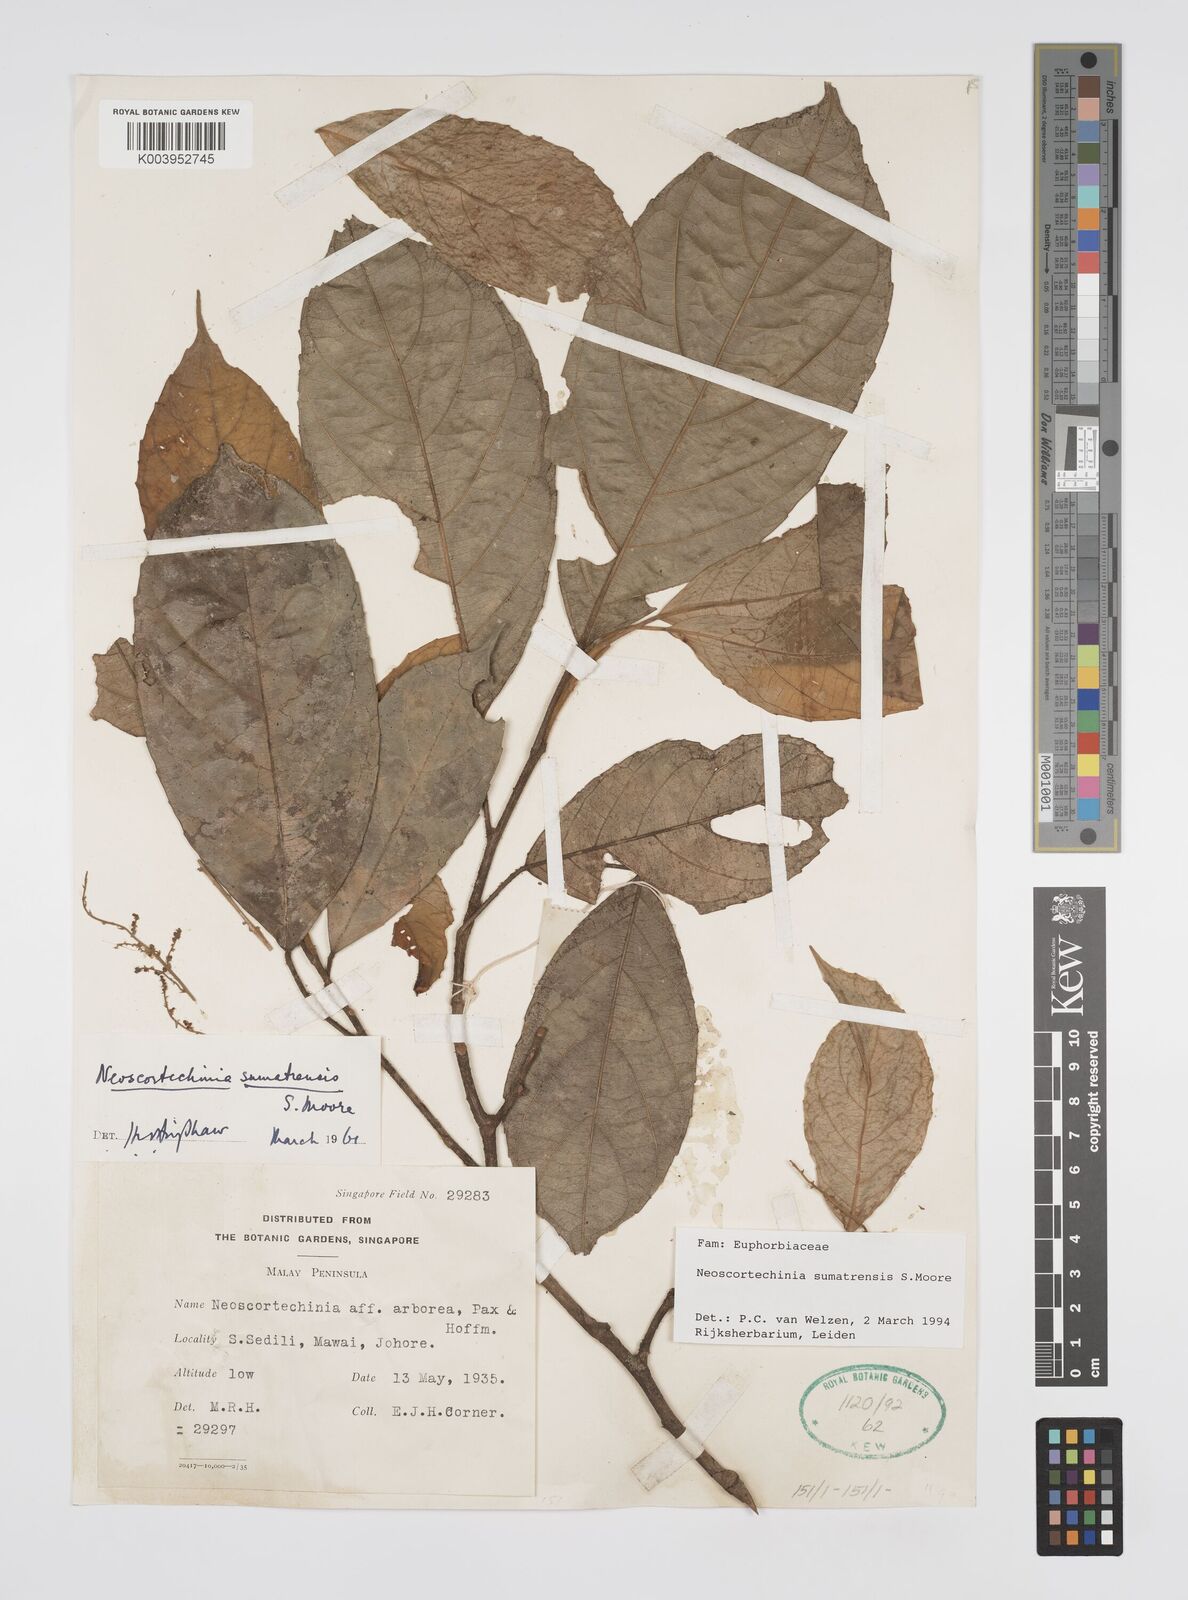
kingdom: Plantae
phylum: Tracheophyta
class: Magnoliopsida
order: Malpighiales
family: Euphorbiaceae
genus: Neoscortechinia
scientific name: Neoscortechinia sumatrensis
